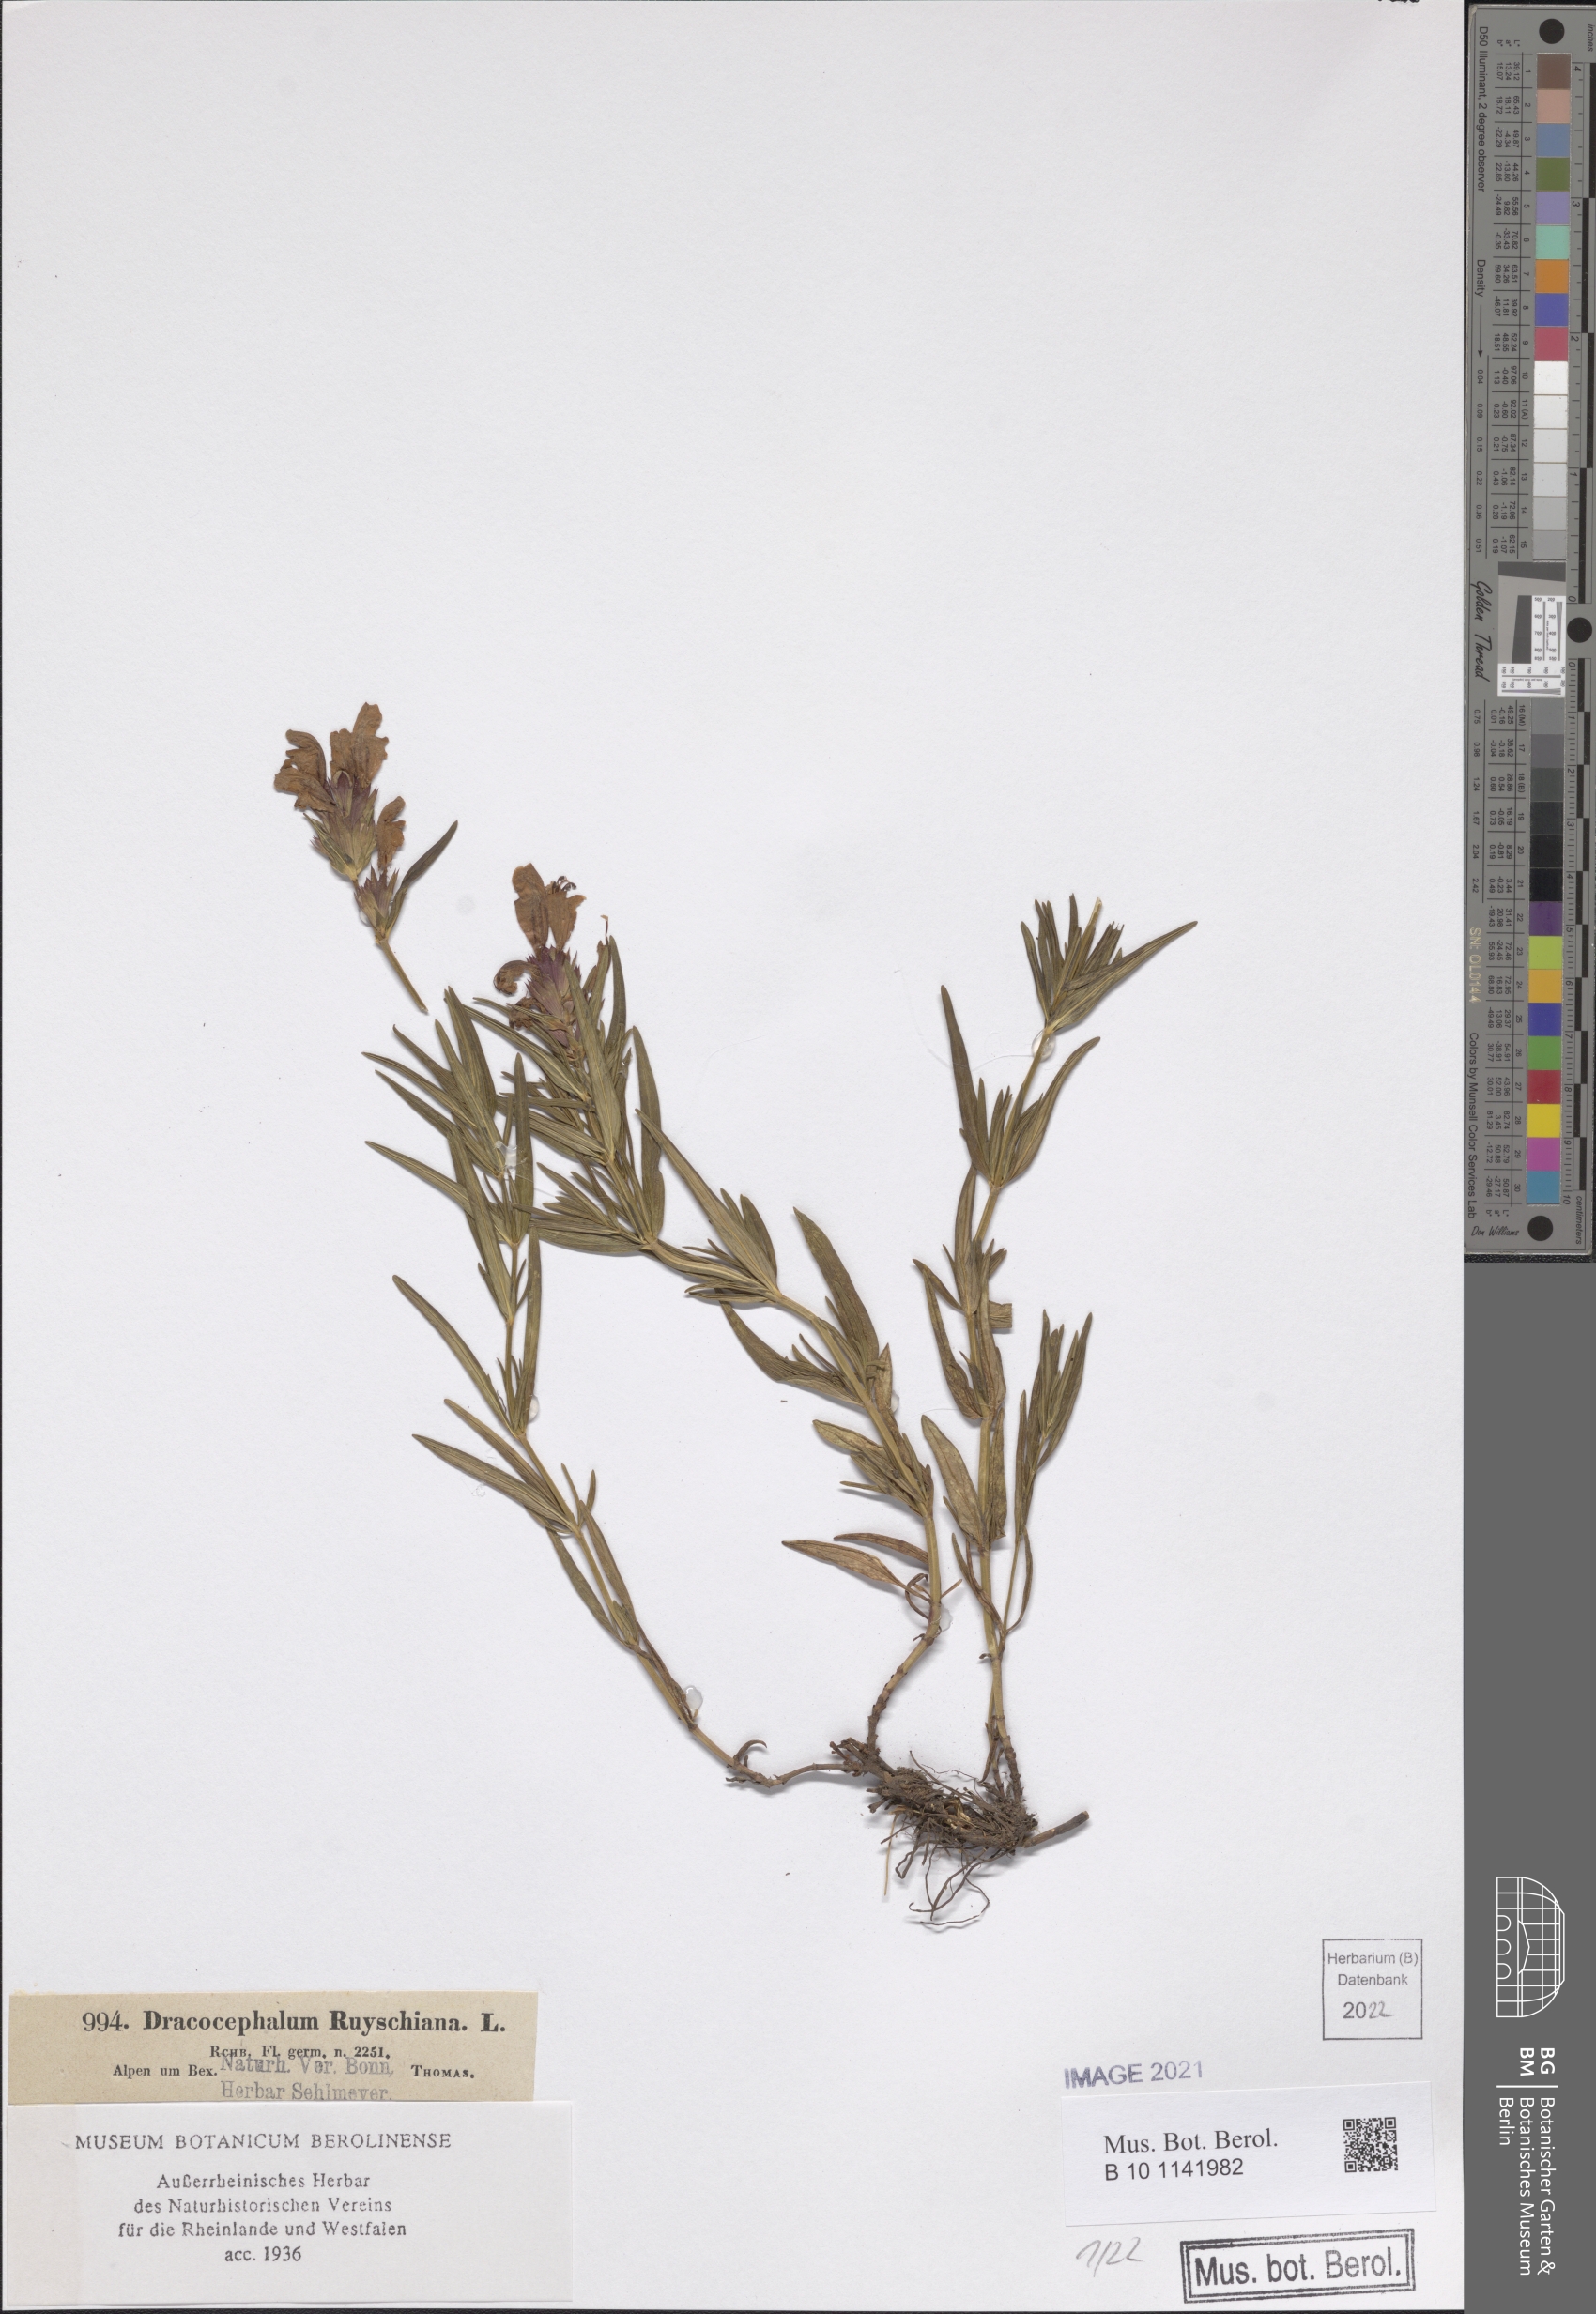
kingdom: Plantae
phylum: Tracheophyta
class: Magnoliopsida
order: Lamiales
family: Lamiaceae
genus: Dracocephalum
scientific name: Dracocephalum ruyschiana
